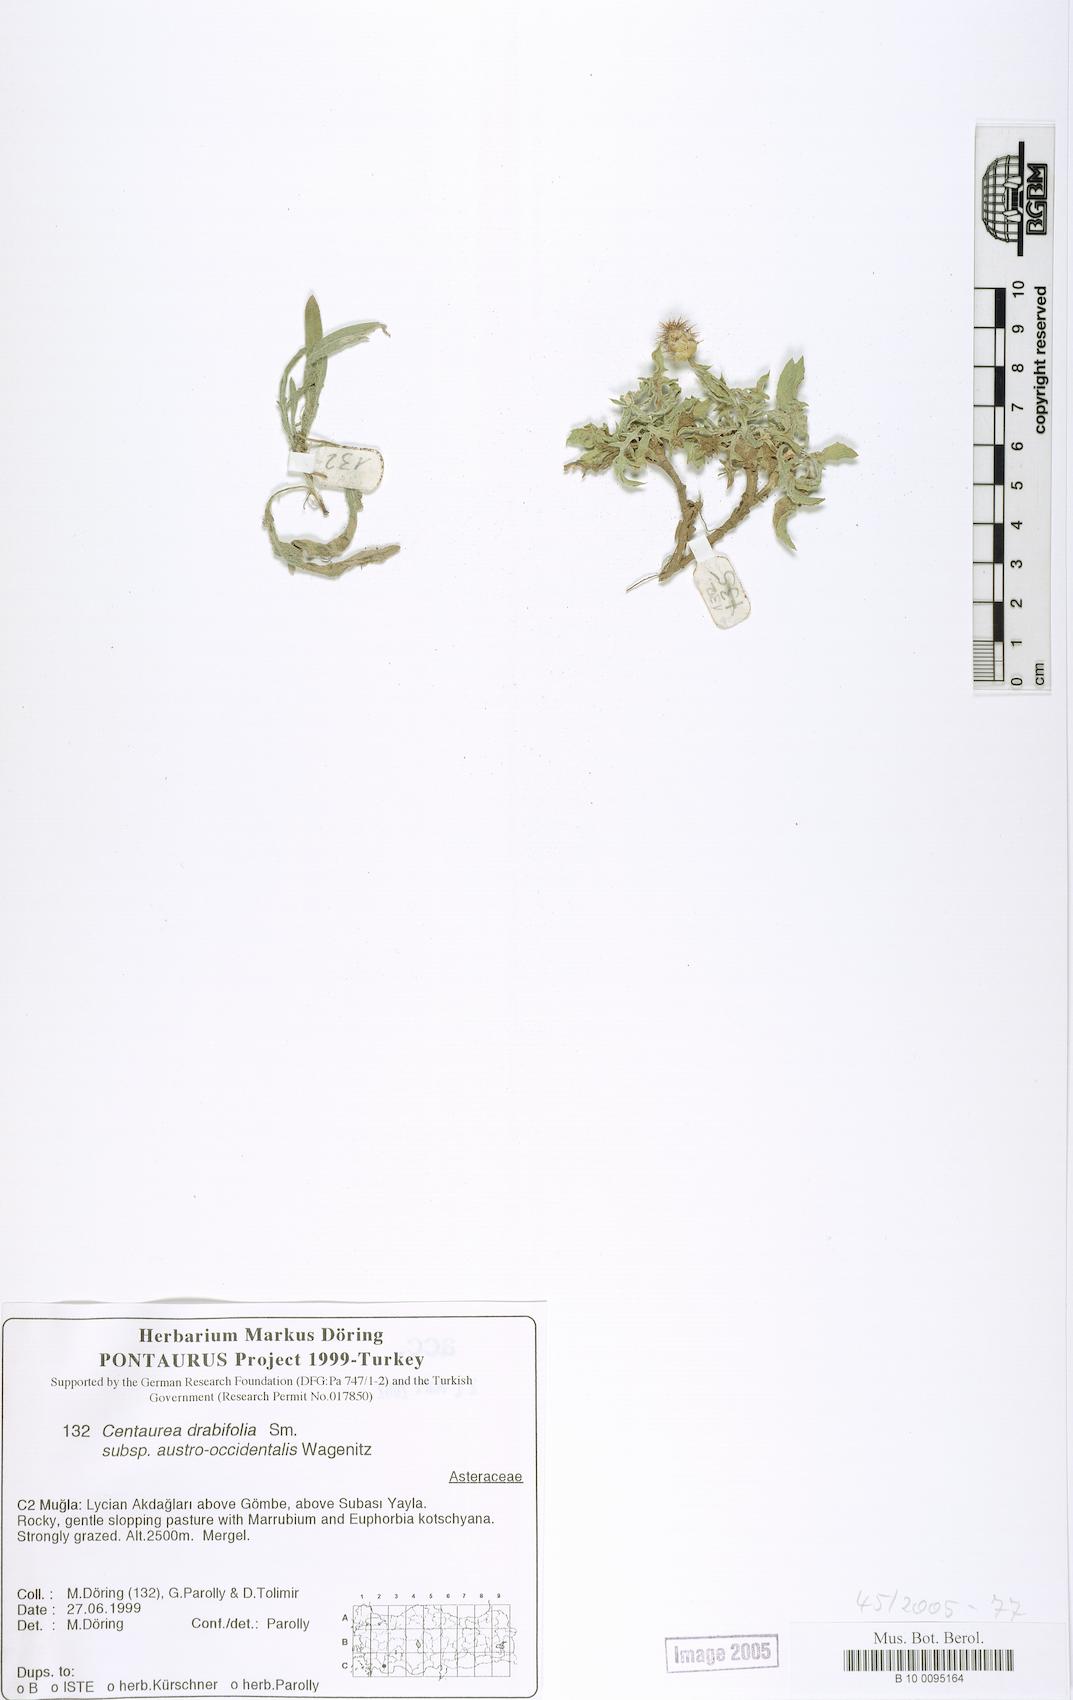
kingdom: Plantae
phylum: Tracheophyta
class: Magnoliopsida
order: Asterales
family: Asteraceae
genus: Centaurea
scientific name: Centaurea drabifolia
